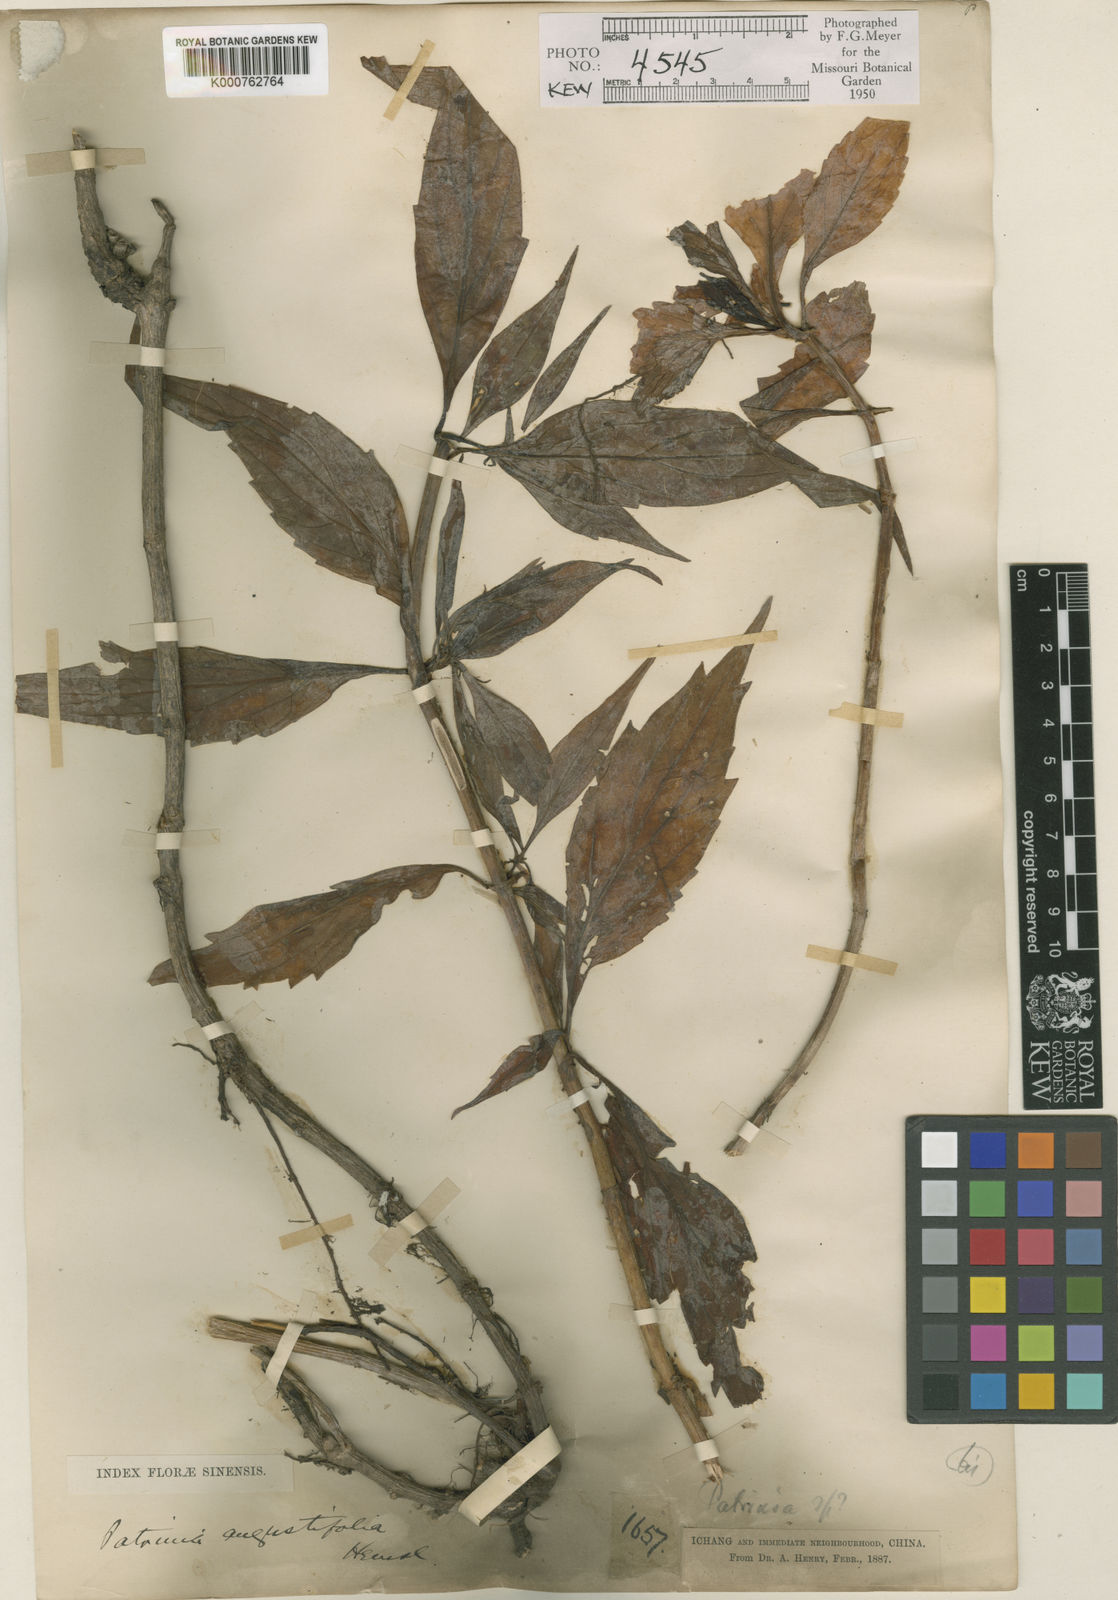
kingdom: Plantae
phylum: Tracheophyta
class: Magnoliopsida
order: Dipsacales
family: Caprifoliaceae
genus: Patrinia
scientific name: Patrinia heterophylla
